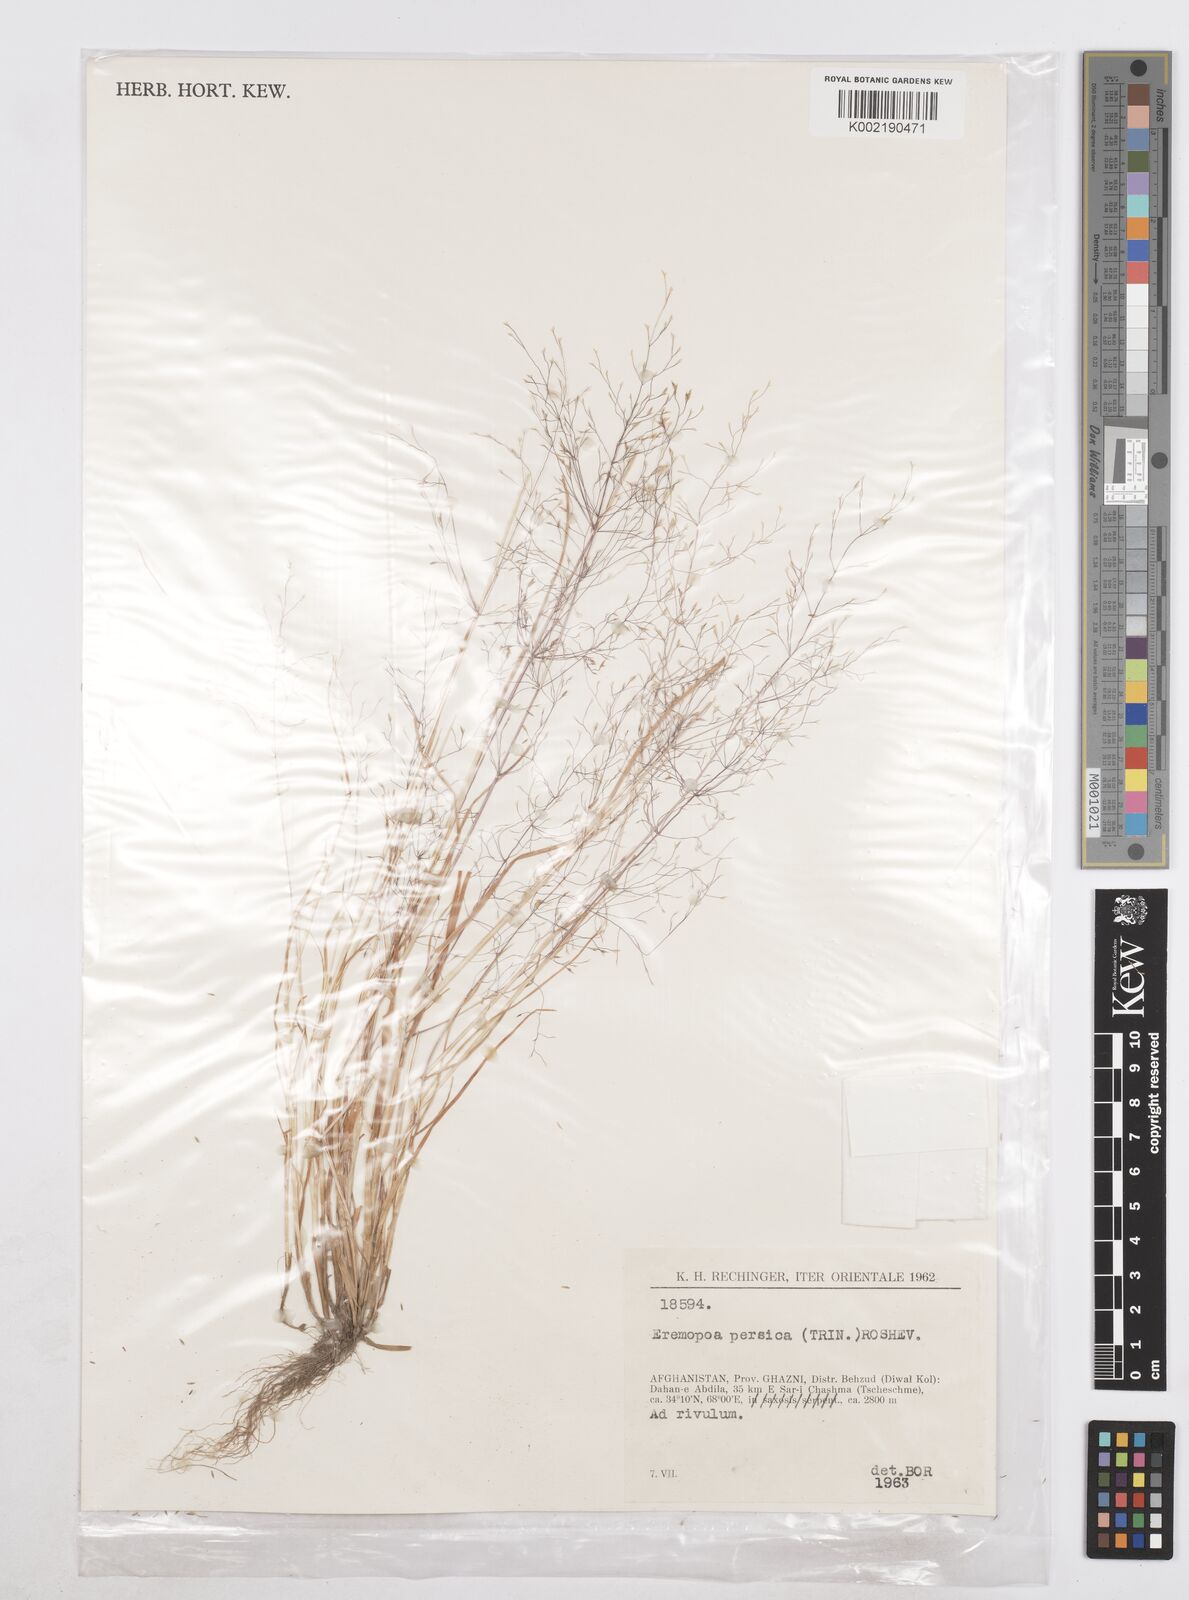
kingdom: Plantae
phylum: Tracheophyta
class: Liliopsida
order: Poales
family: Poaceae
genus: Poa
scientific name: Poa diaphora
